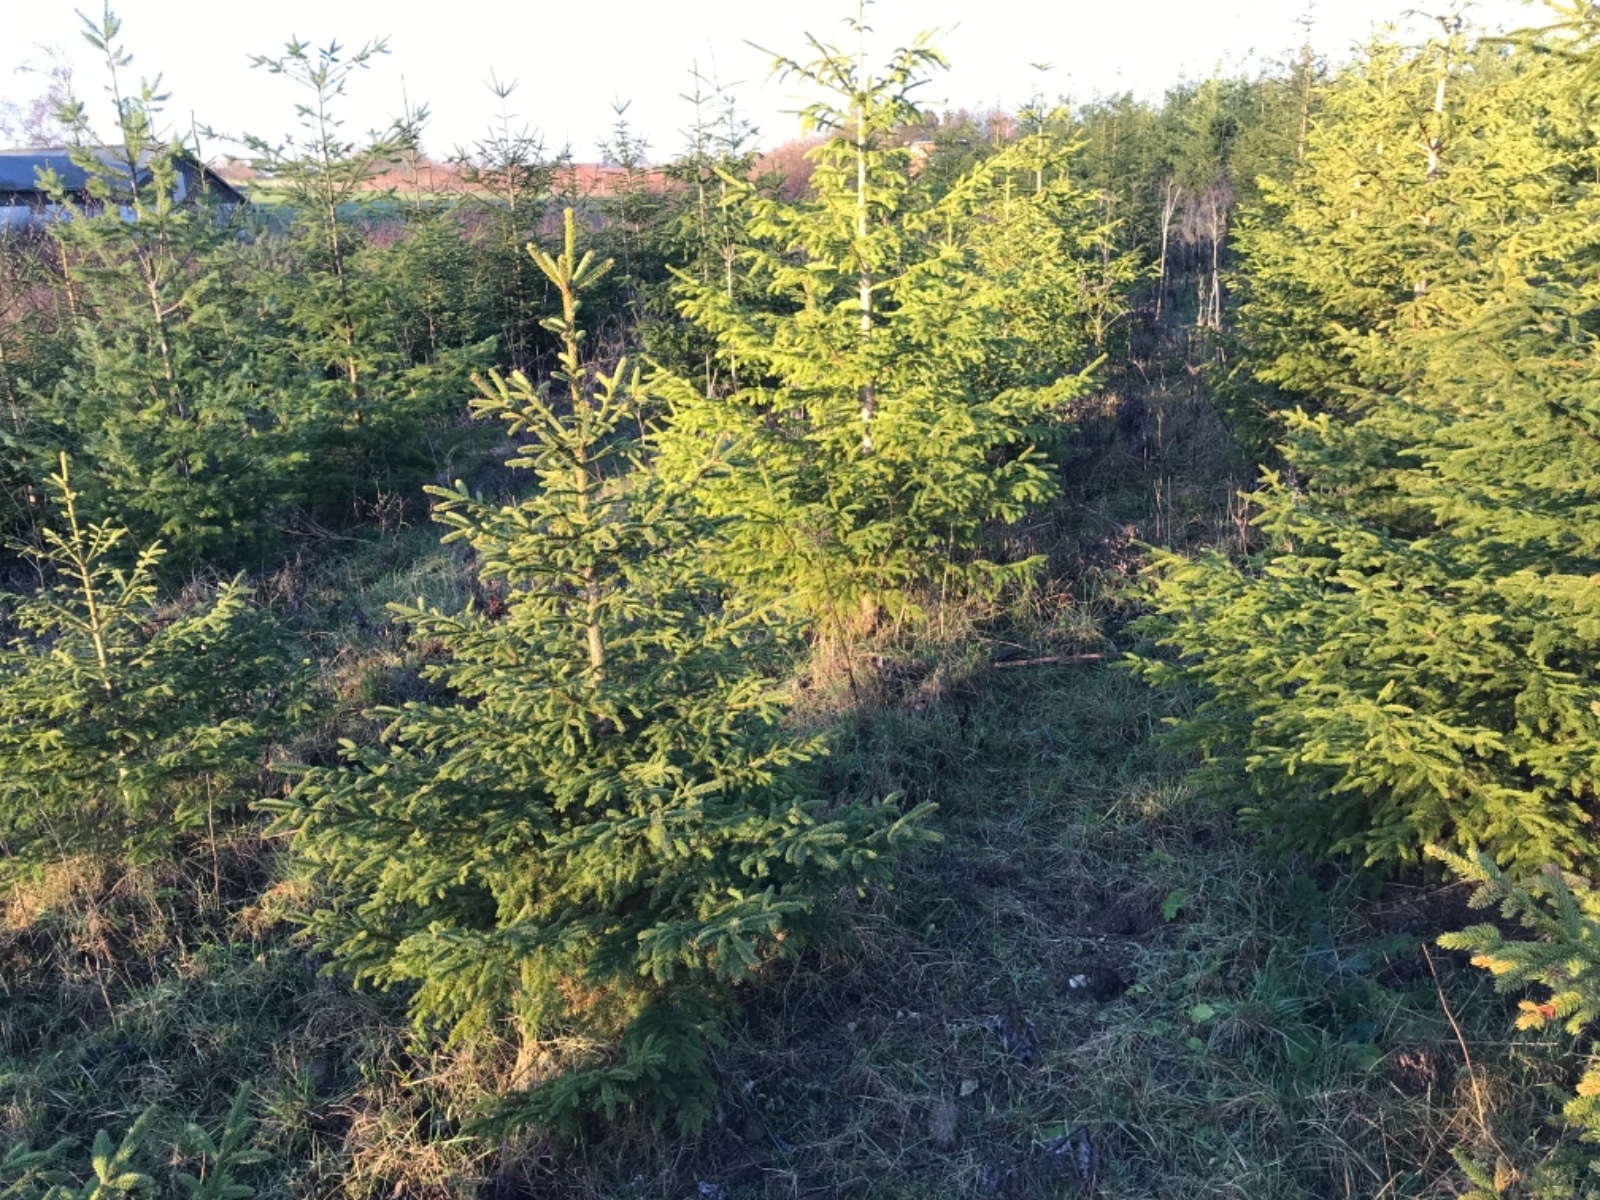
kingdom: Fungi
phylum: Basidiomycota
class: Agaricomycetes
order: Agaricales
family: Tubariaceae
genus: Tubaria
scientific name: Tubaria furfuracea
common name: kliddet fnughat
